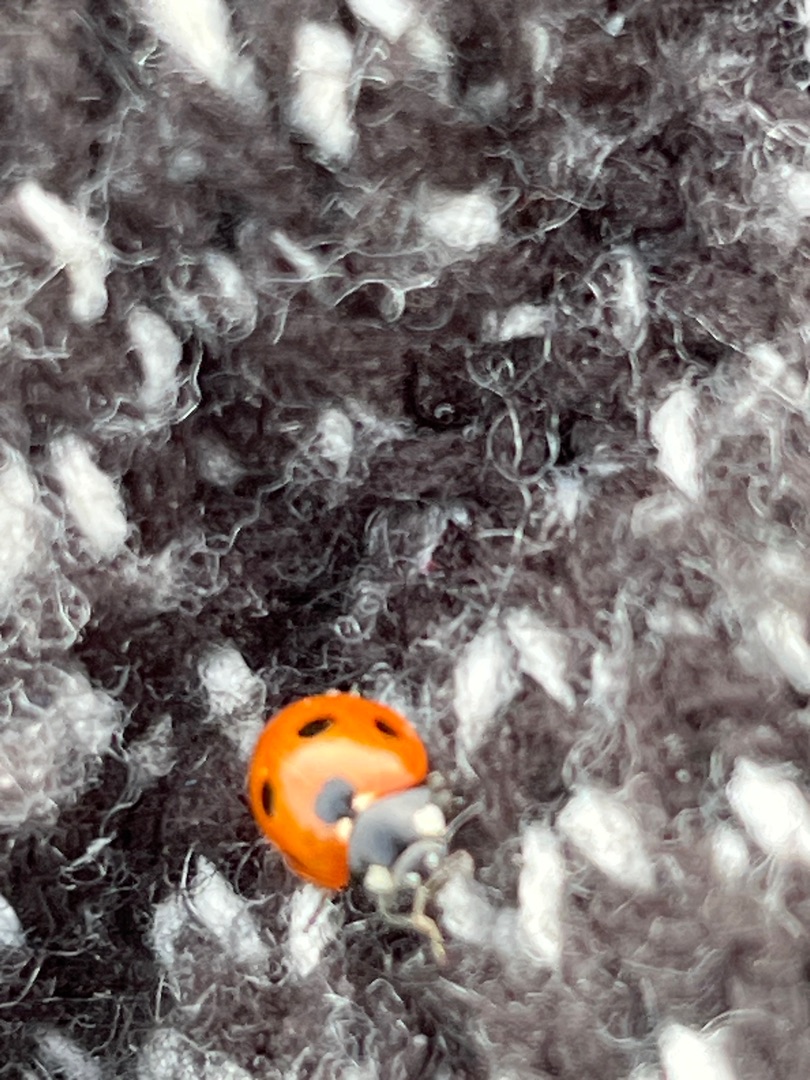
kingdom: Animalia
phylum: Arthropoda
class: Insecta
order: Coleoptera
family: Coccinellidae
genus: Coccinella
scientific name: Coccinella septempunctata
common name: Syvplettet mariehøne
